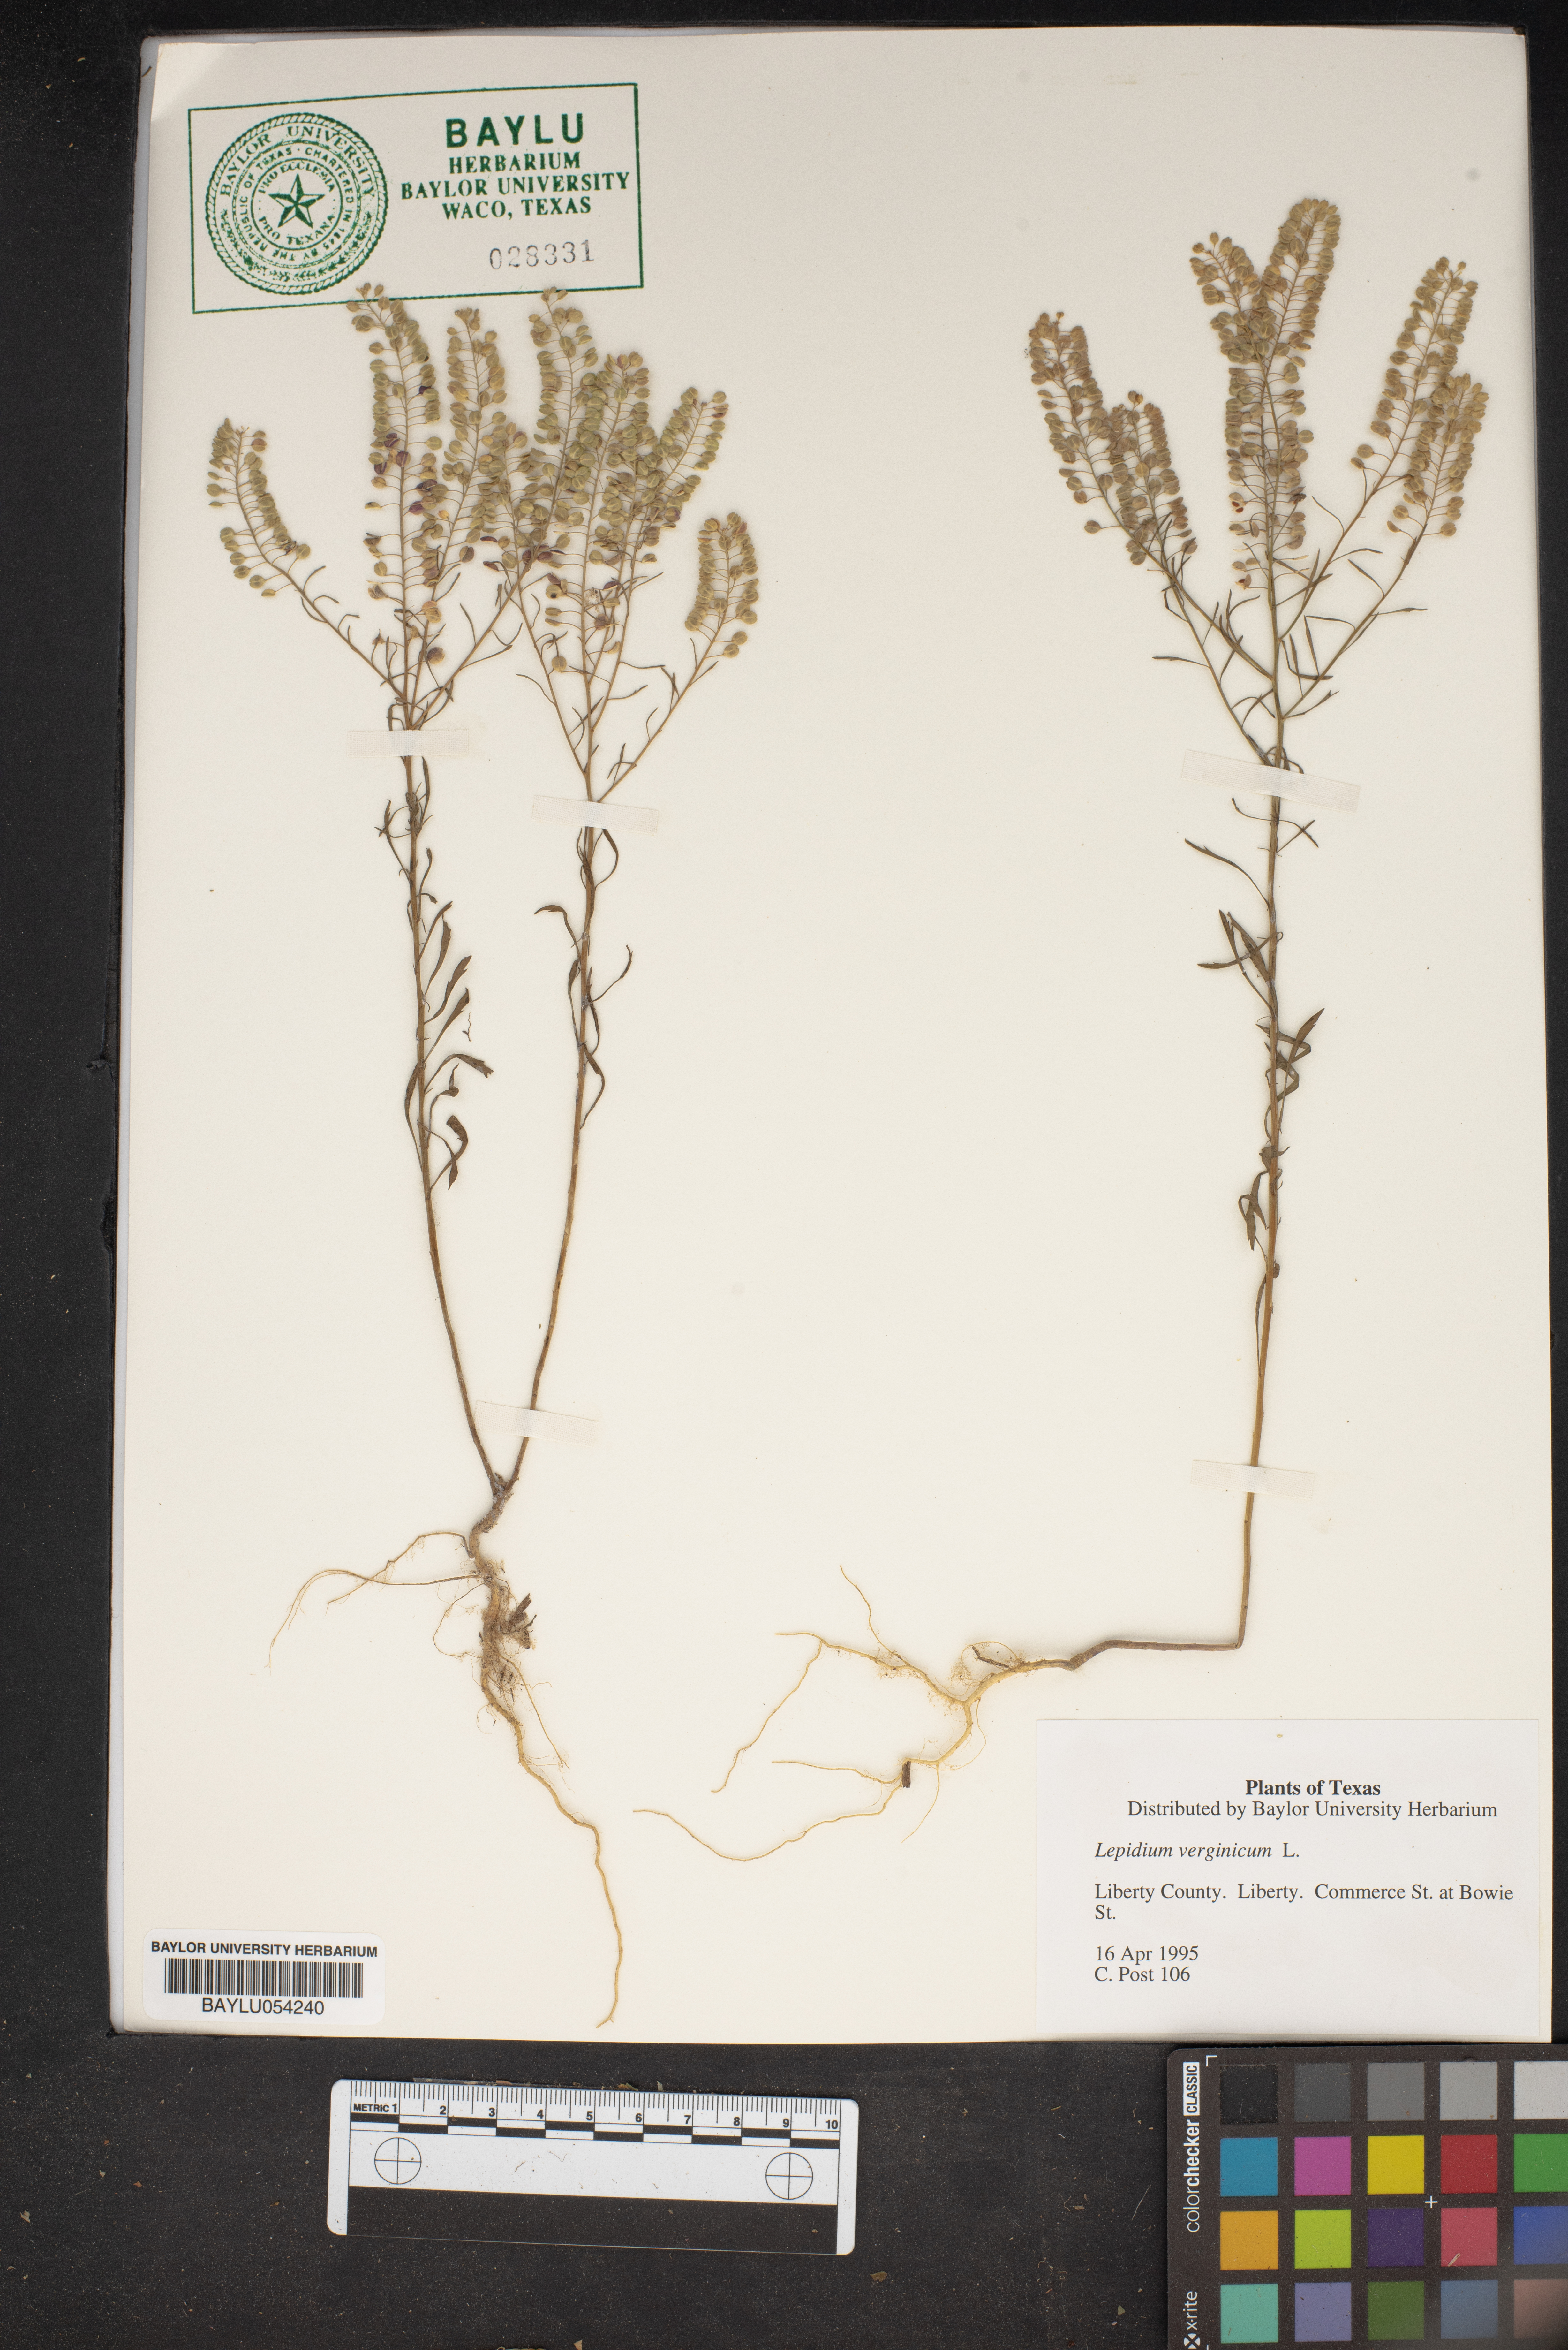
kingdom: Plantae
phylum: Tracheophyta
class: Magnoliopsida
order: Brassicales
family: Brassicaceae
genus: Lepidium
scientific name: Lepidium virginicum
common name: Least pepperwort
